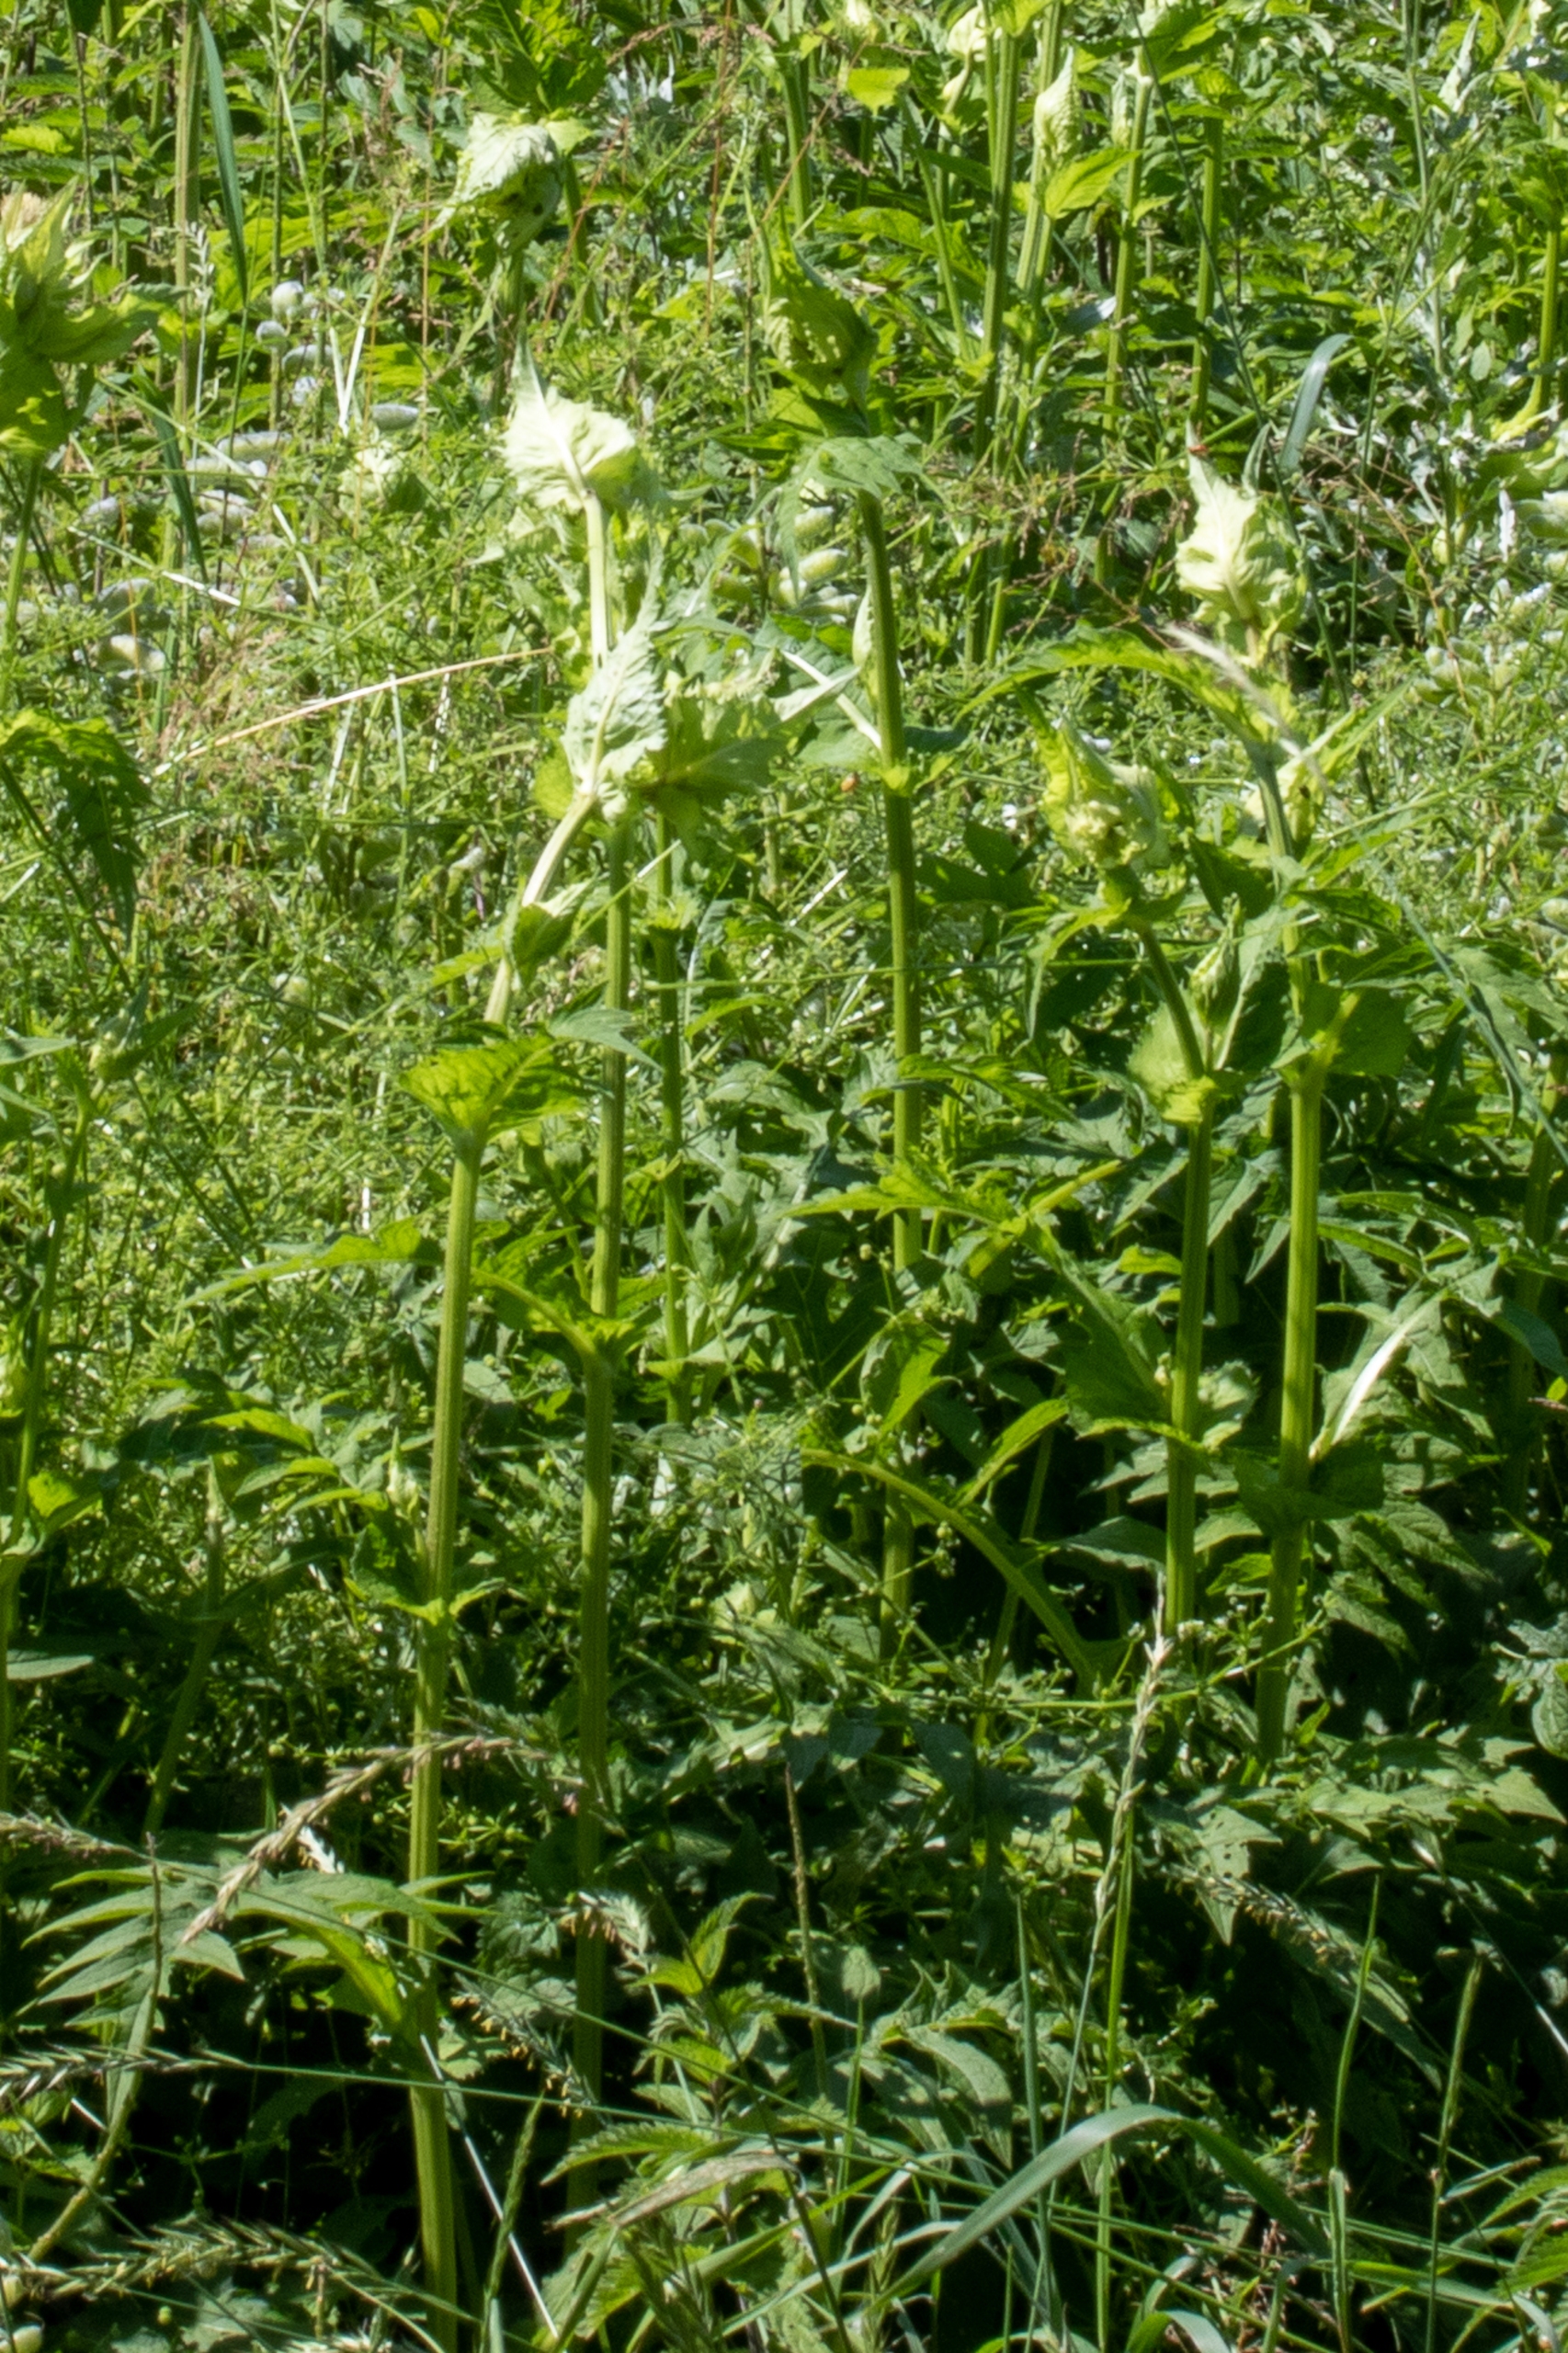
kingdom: Plantae
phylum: Tracheophyta
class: Magnoliopsida
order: Asterales
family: Asteraceae
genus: Cirsium
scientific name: Cirsium oleraceum
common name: Kål-tidsel
